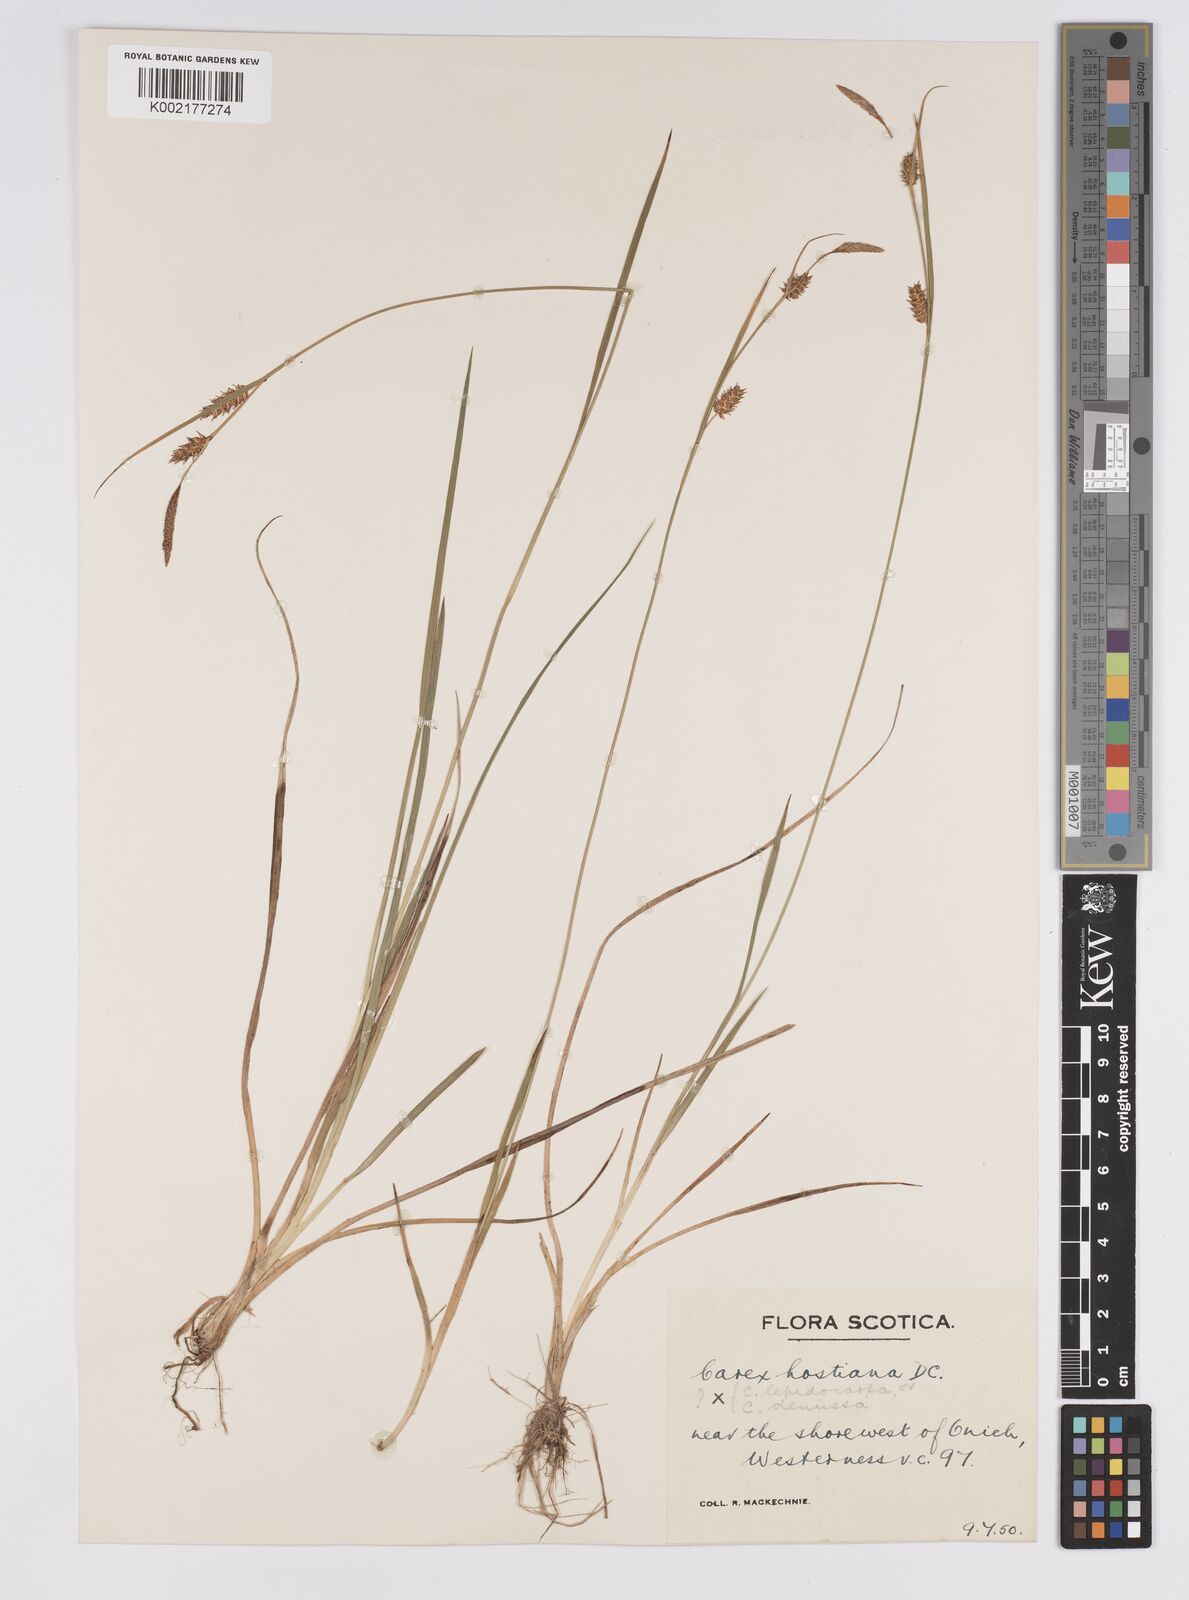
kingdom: Plantae
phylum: Tracheophyta
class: Liliopsida
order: Poales
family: Cyperaceae
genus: Carex
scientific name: Carex hostiana
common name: Tawny sedge
